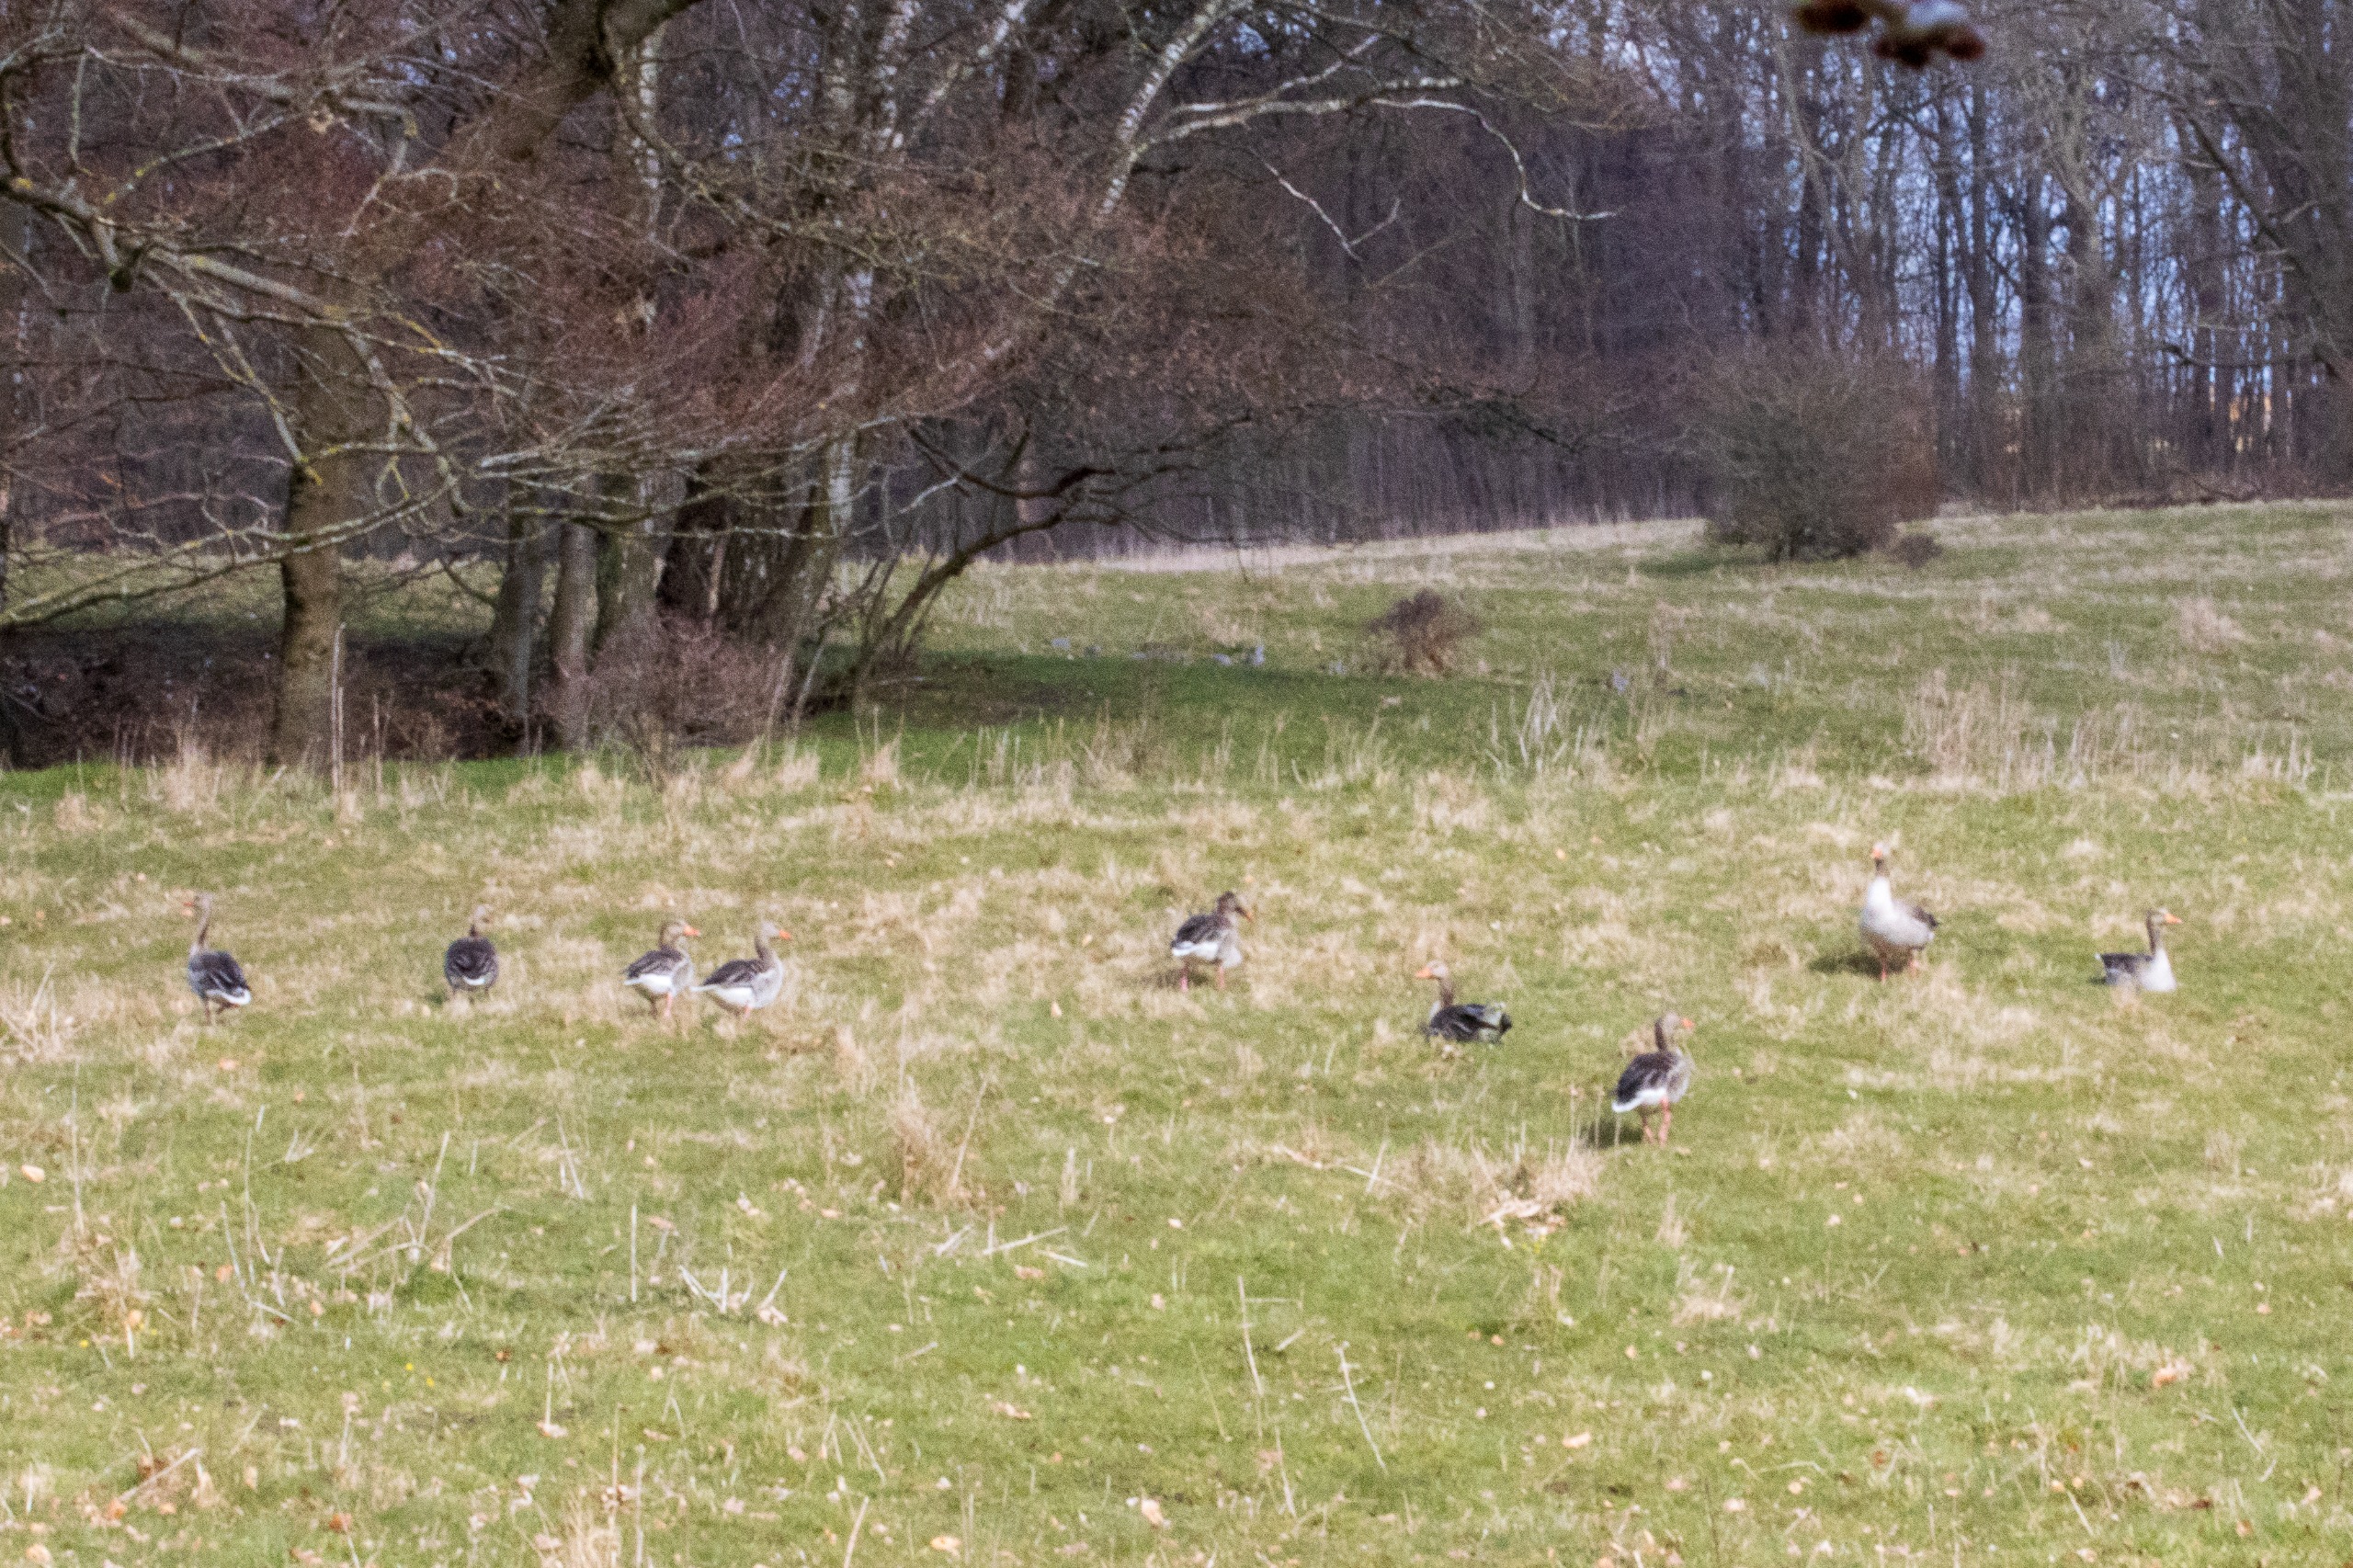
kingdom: Animalia
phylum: Chordata
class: Aves
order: Anseriformes
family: Anatidae
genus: Anser
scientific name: Anser anser
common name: Grågås
